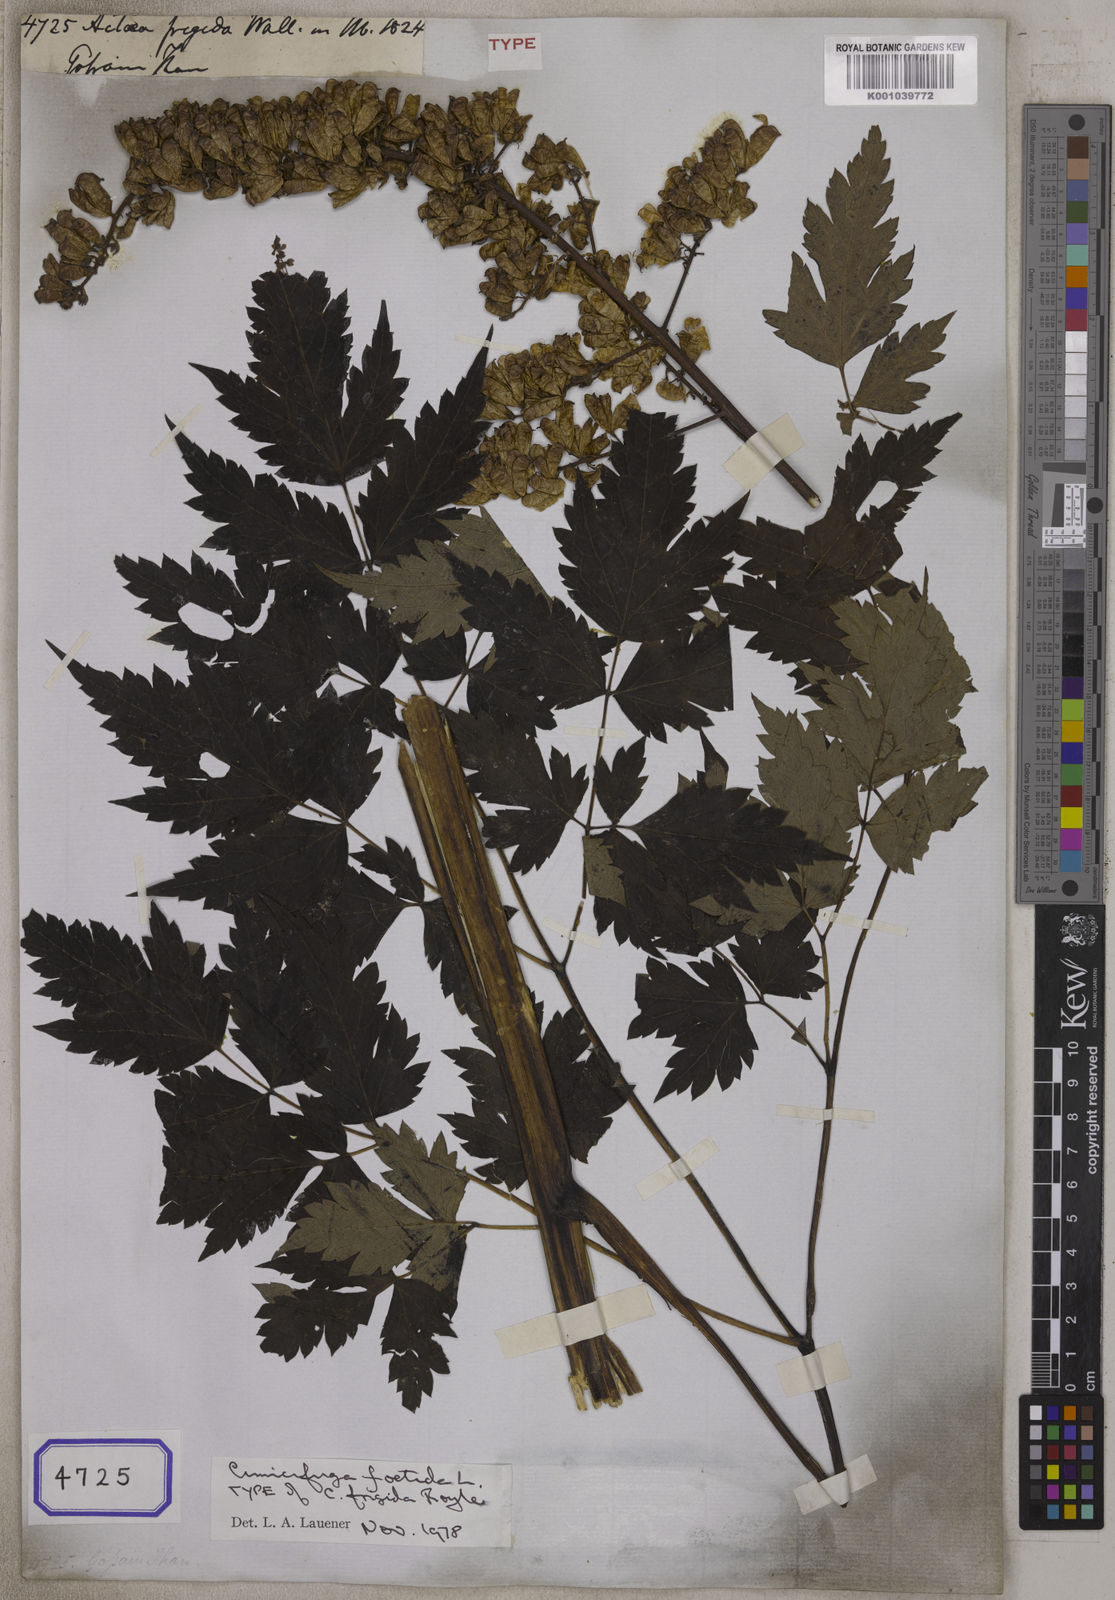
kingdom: Plantae
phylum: Tracheophyta
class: Magnoliopsida
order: Ranunculales
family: Ranunculaceae
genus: Actaea
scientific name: Actaea
